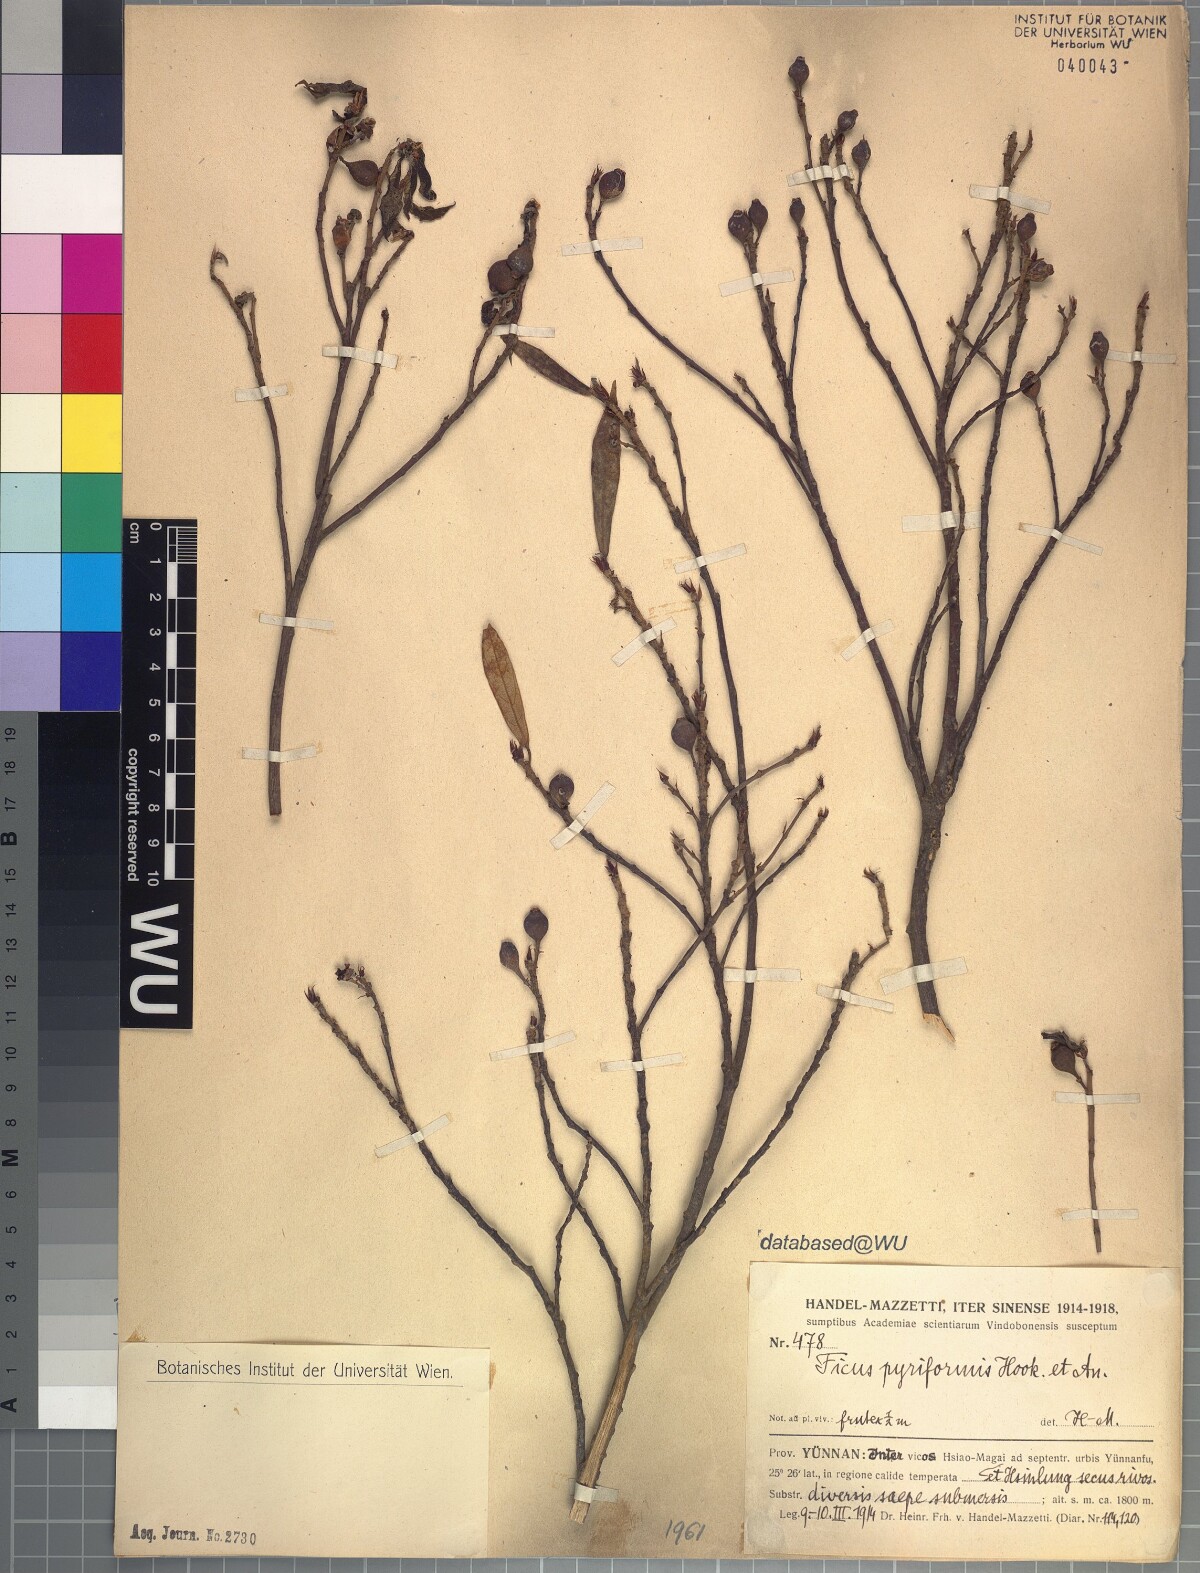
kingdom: Plantae
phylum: Tracheophyta
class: Magnoliopsida
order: Rosales
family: Moraceae
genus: Ficus
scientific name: Ficus pyriformis
